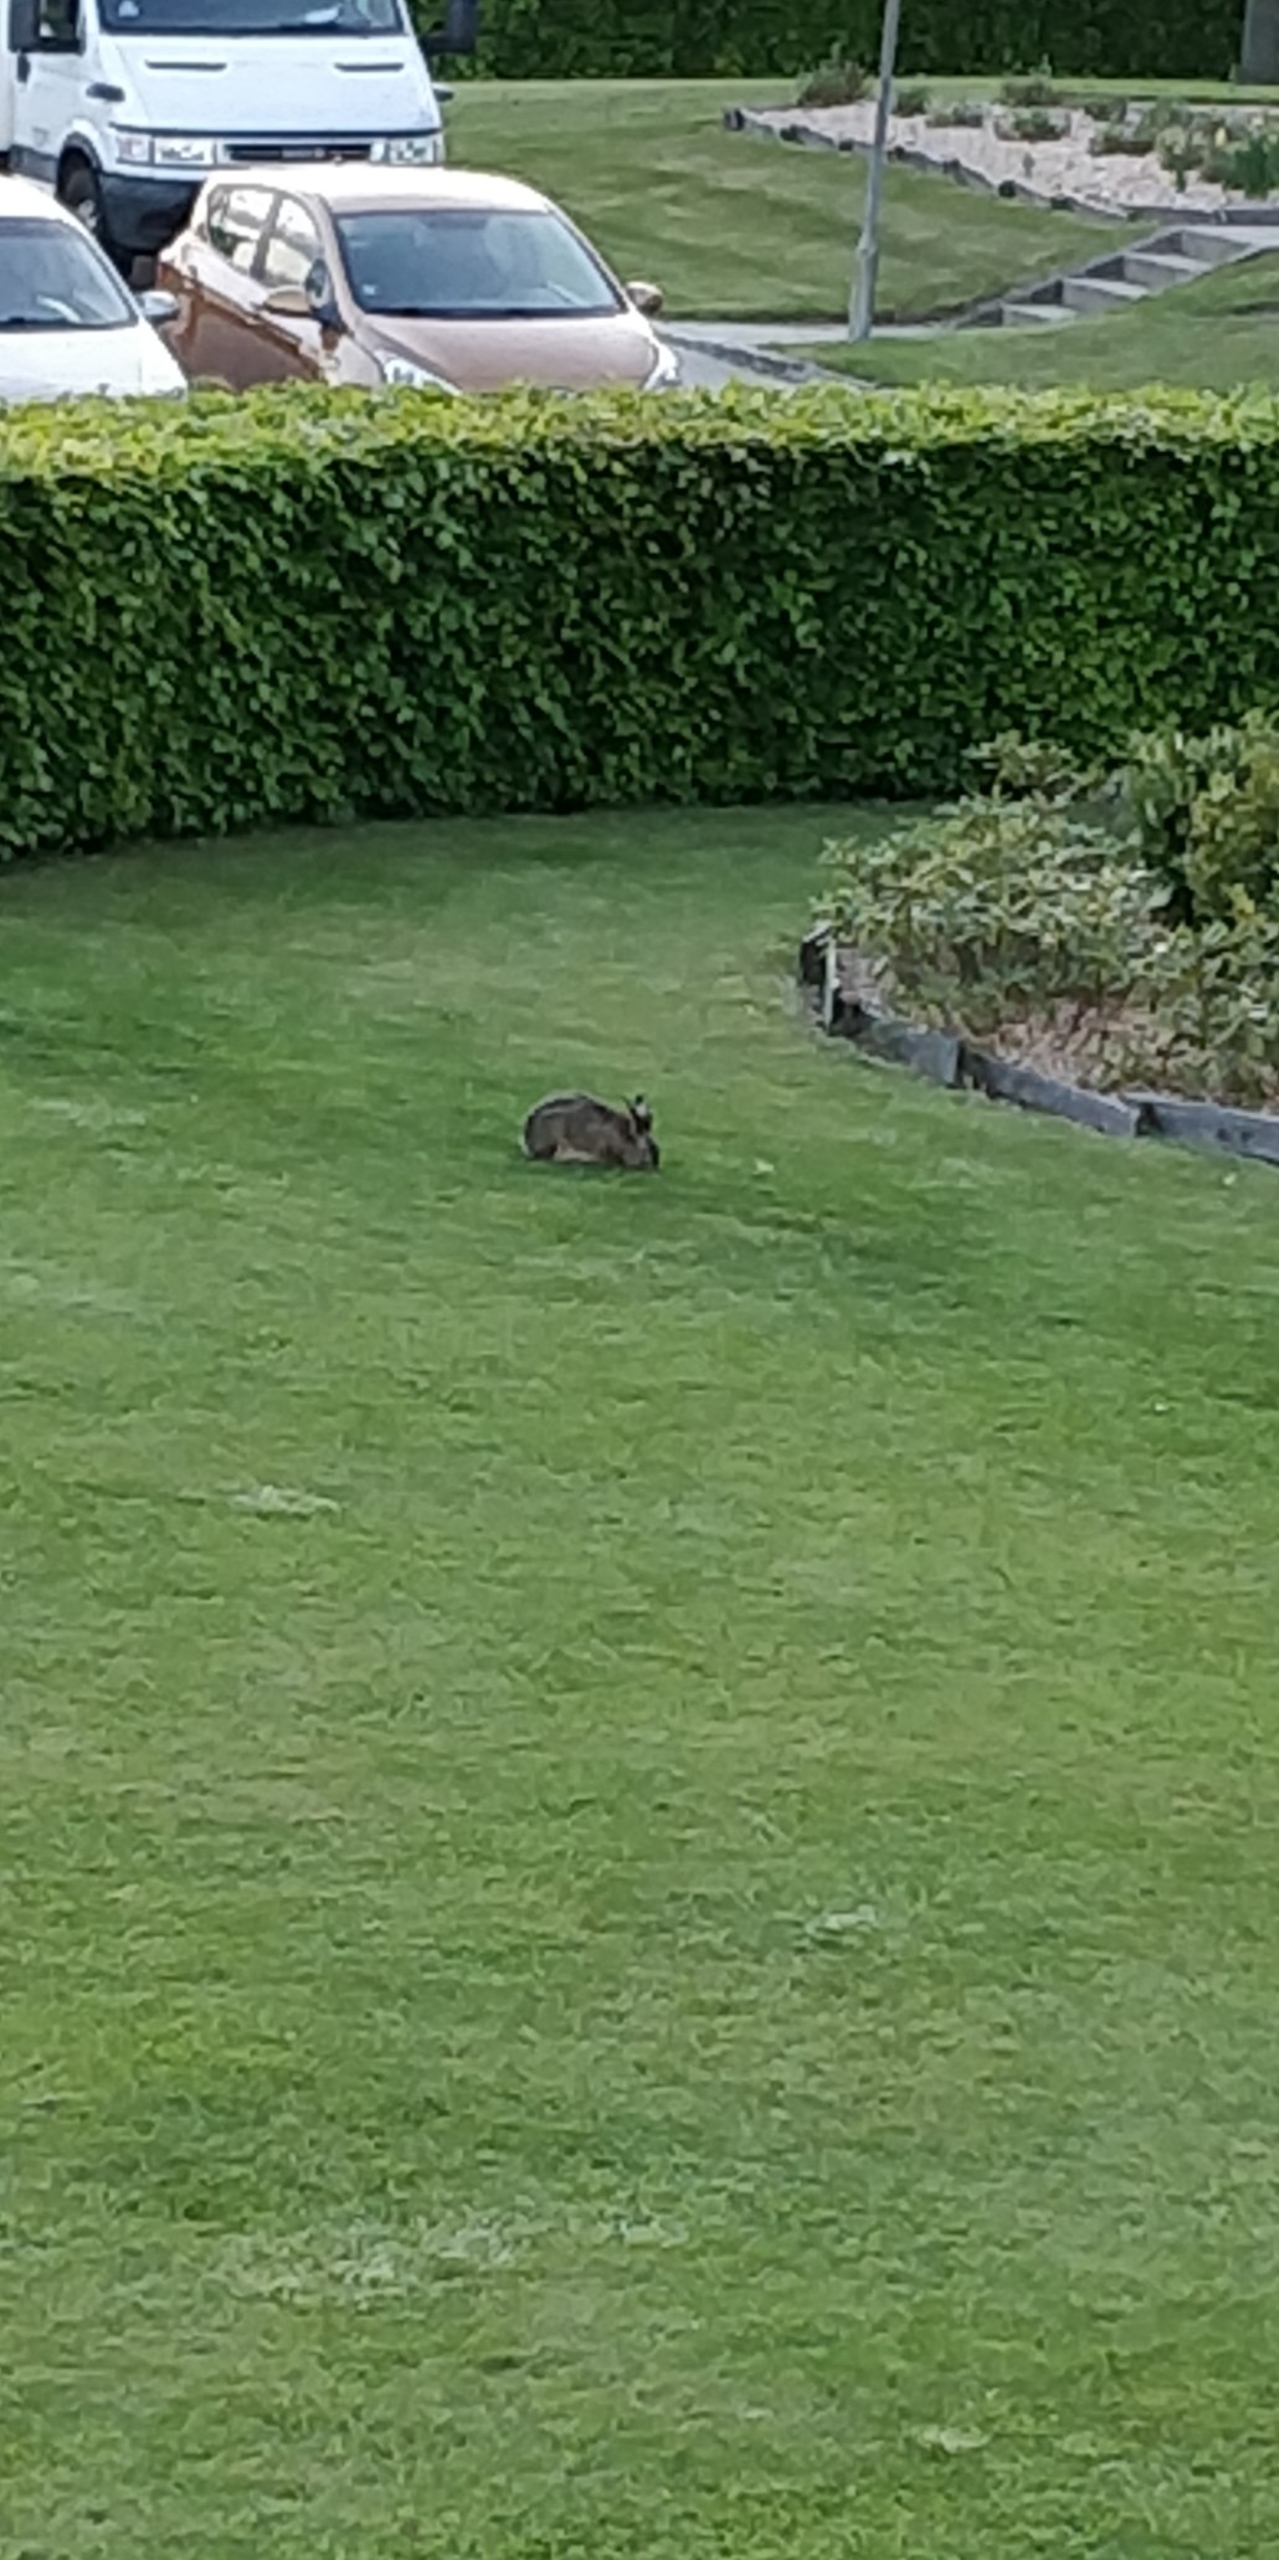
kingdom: Animalia
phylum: Chordata
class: Mammalia
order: Lagomorpha
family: Leporidae
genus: Lepus
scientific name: Lepus europaeus
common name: Hare
